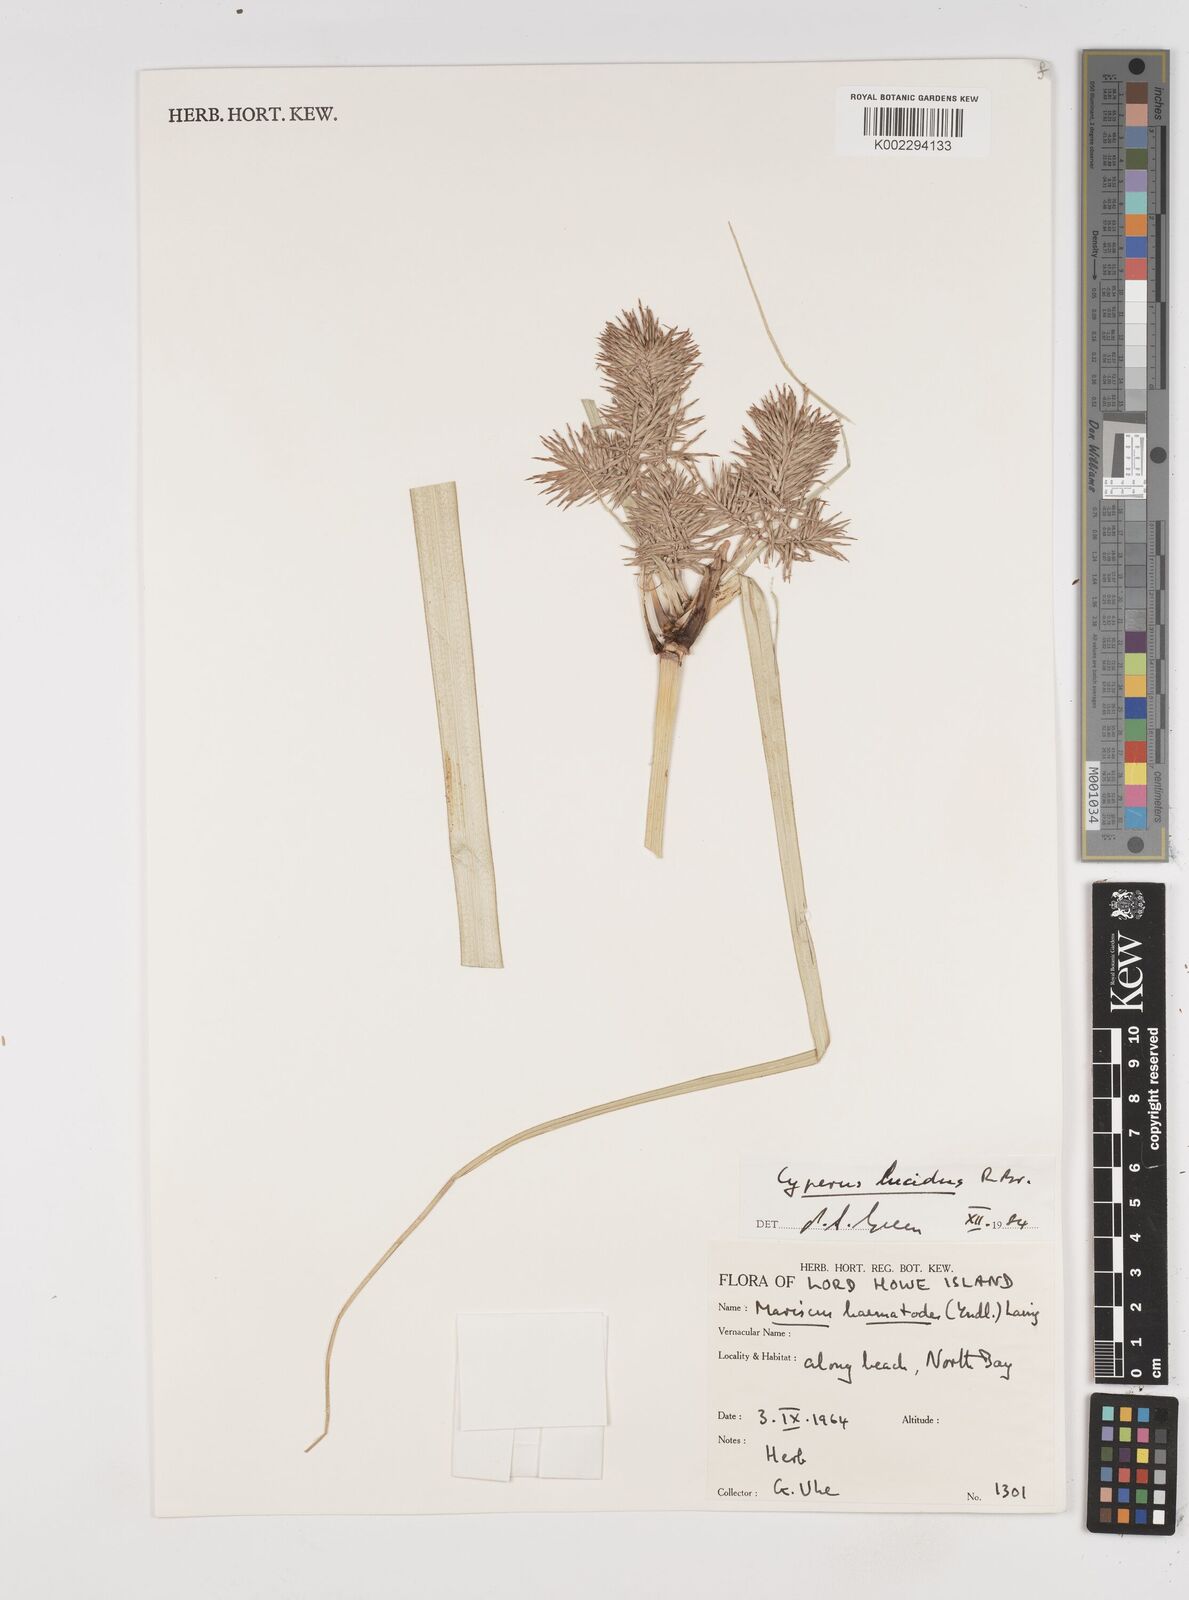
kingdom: Plantae
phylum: Tracheophyta
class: Liliopsida
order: Poales
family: Cyperaceae
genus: Cyperus
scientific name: Cyperus lucidus
